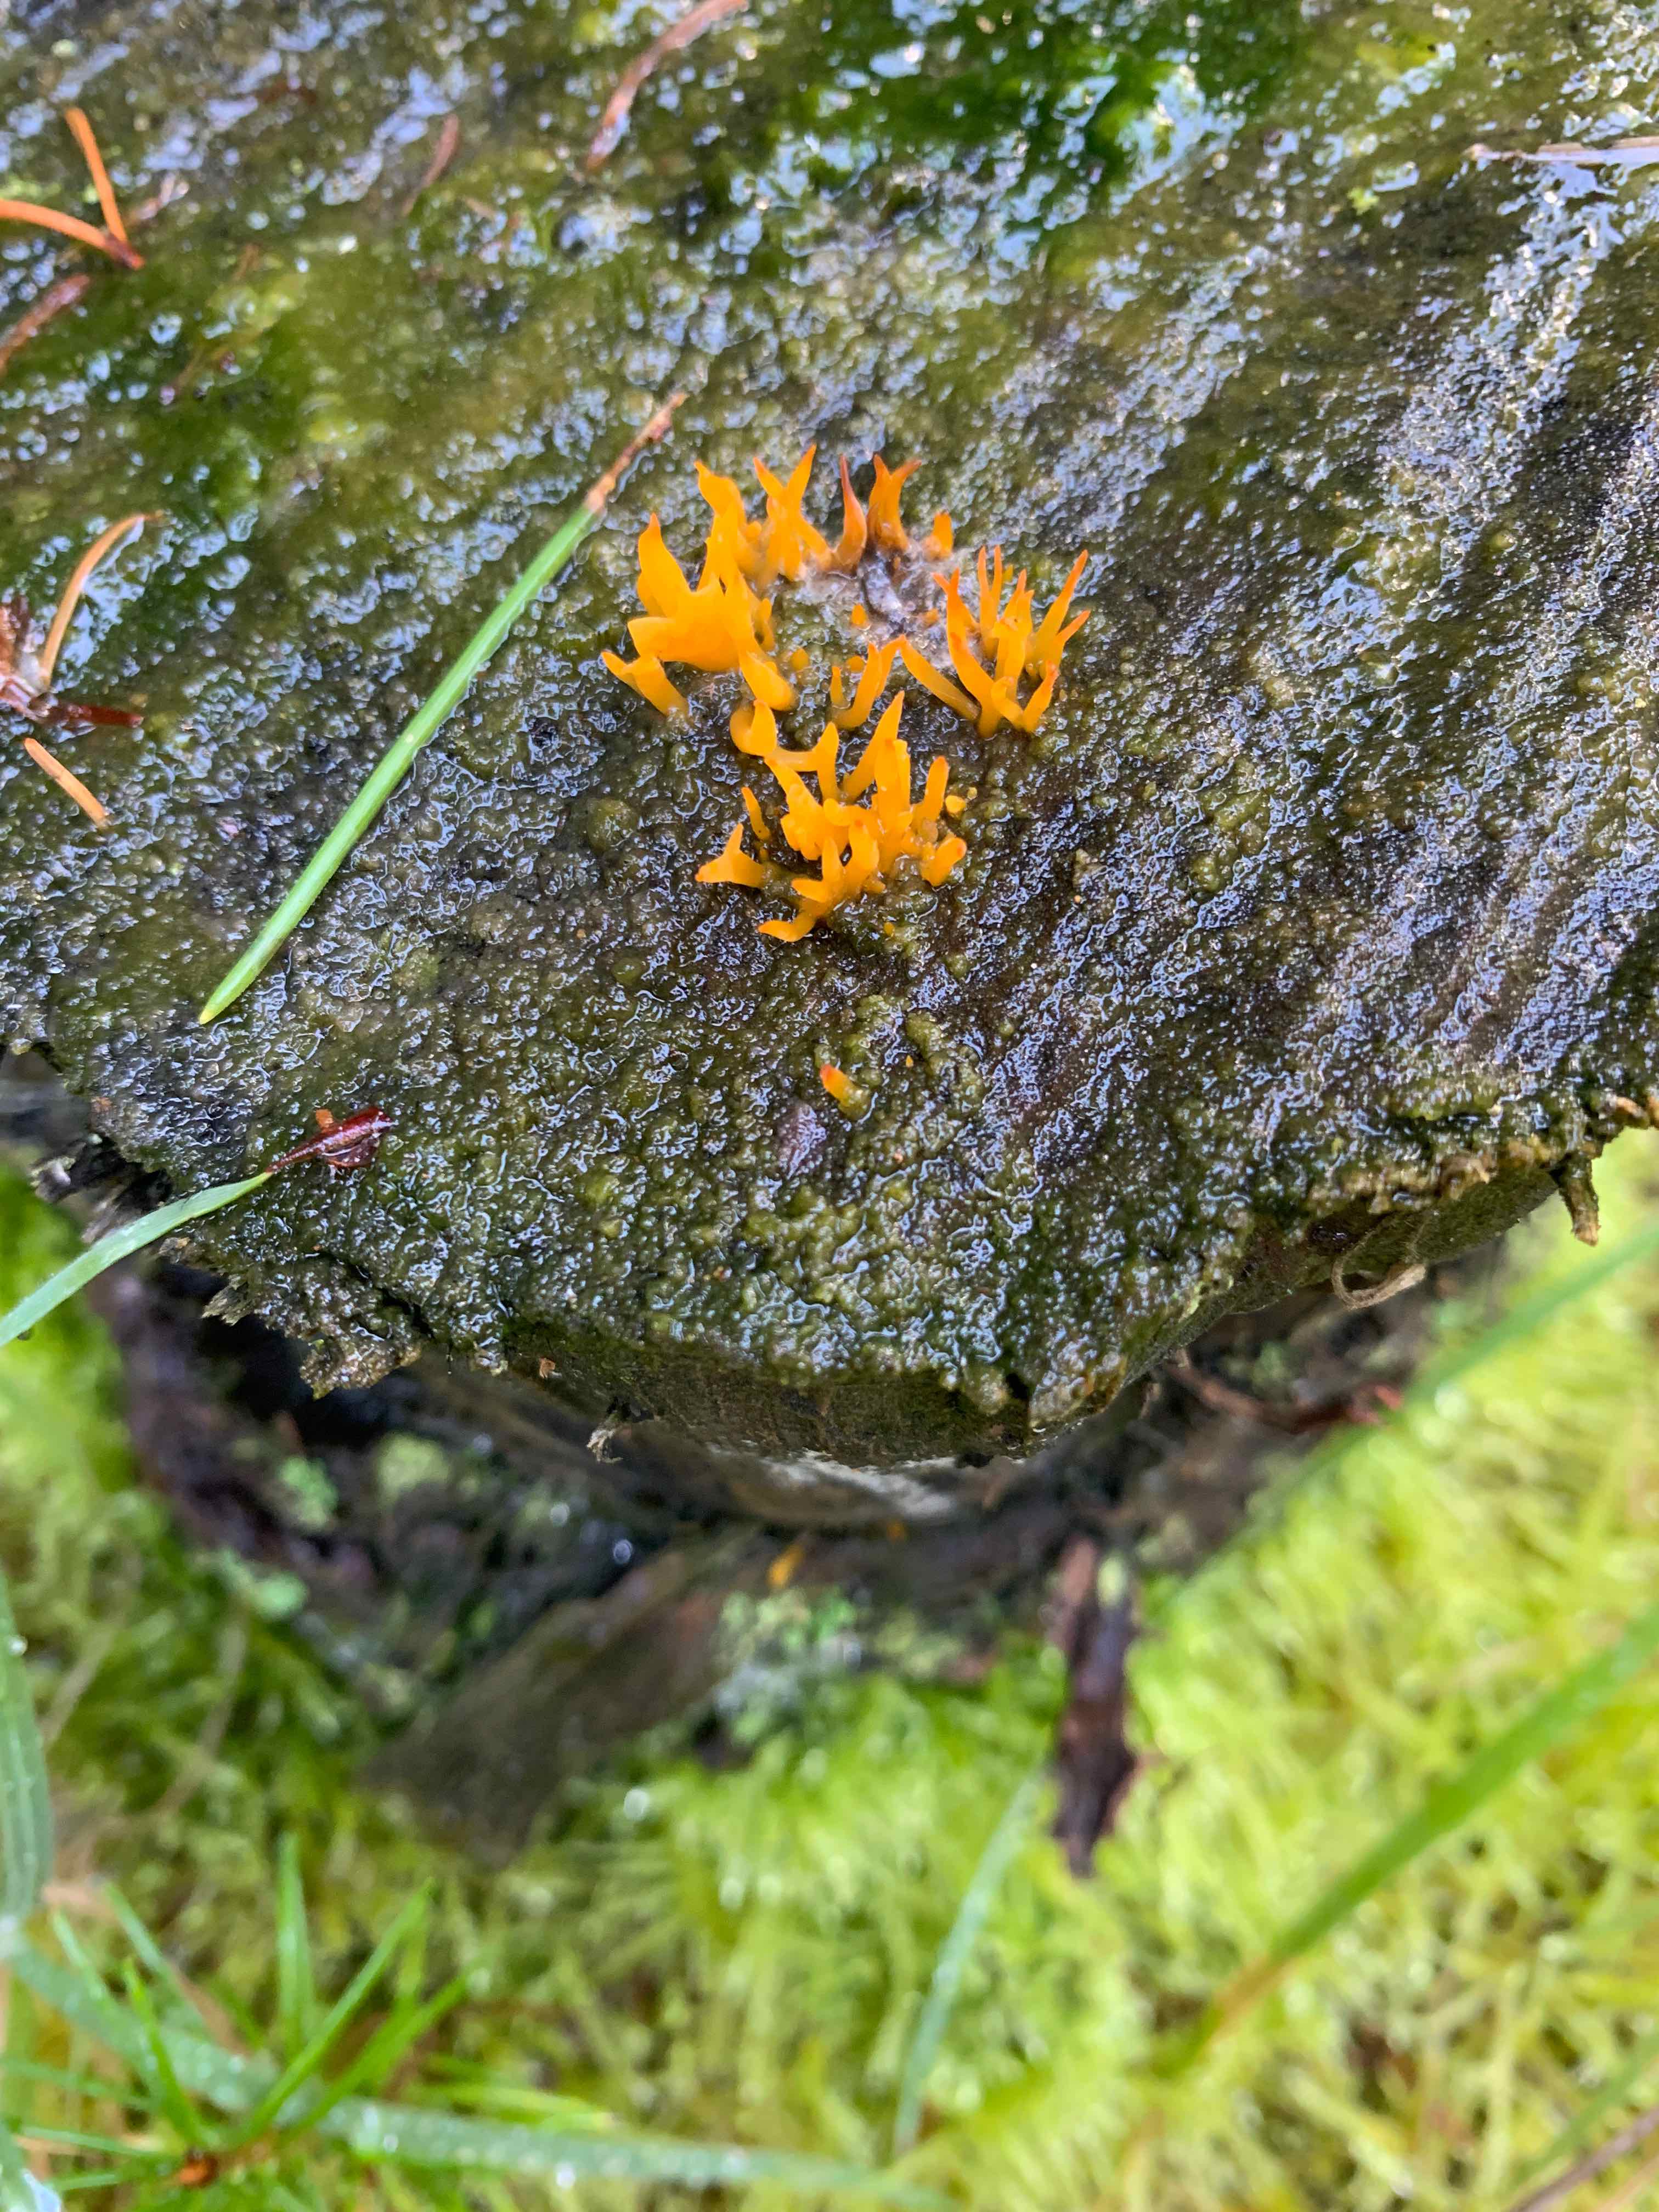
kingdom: Fungi
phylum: Basidiomycota
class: Dacrymycetes
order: Dacrymycetales
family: Dacrymycetaceae
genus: Calocera
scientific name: Calocera cornea
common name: liden guldgaffel
